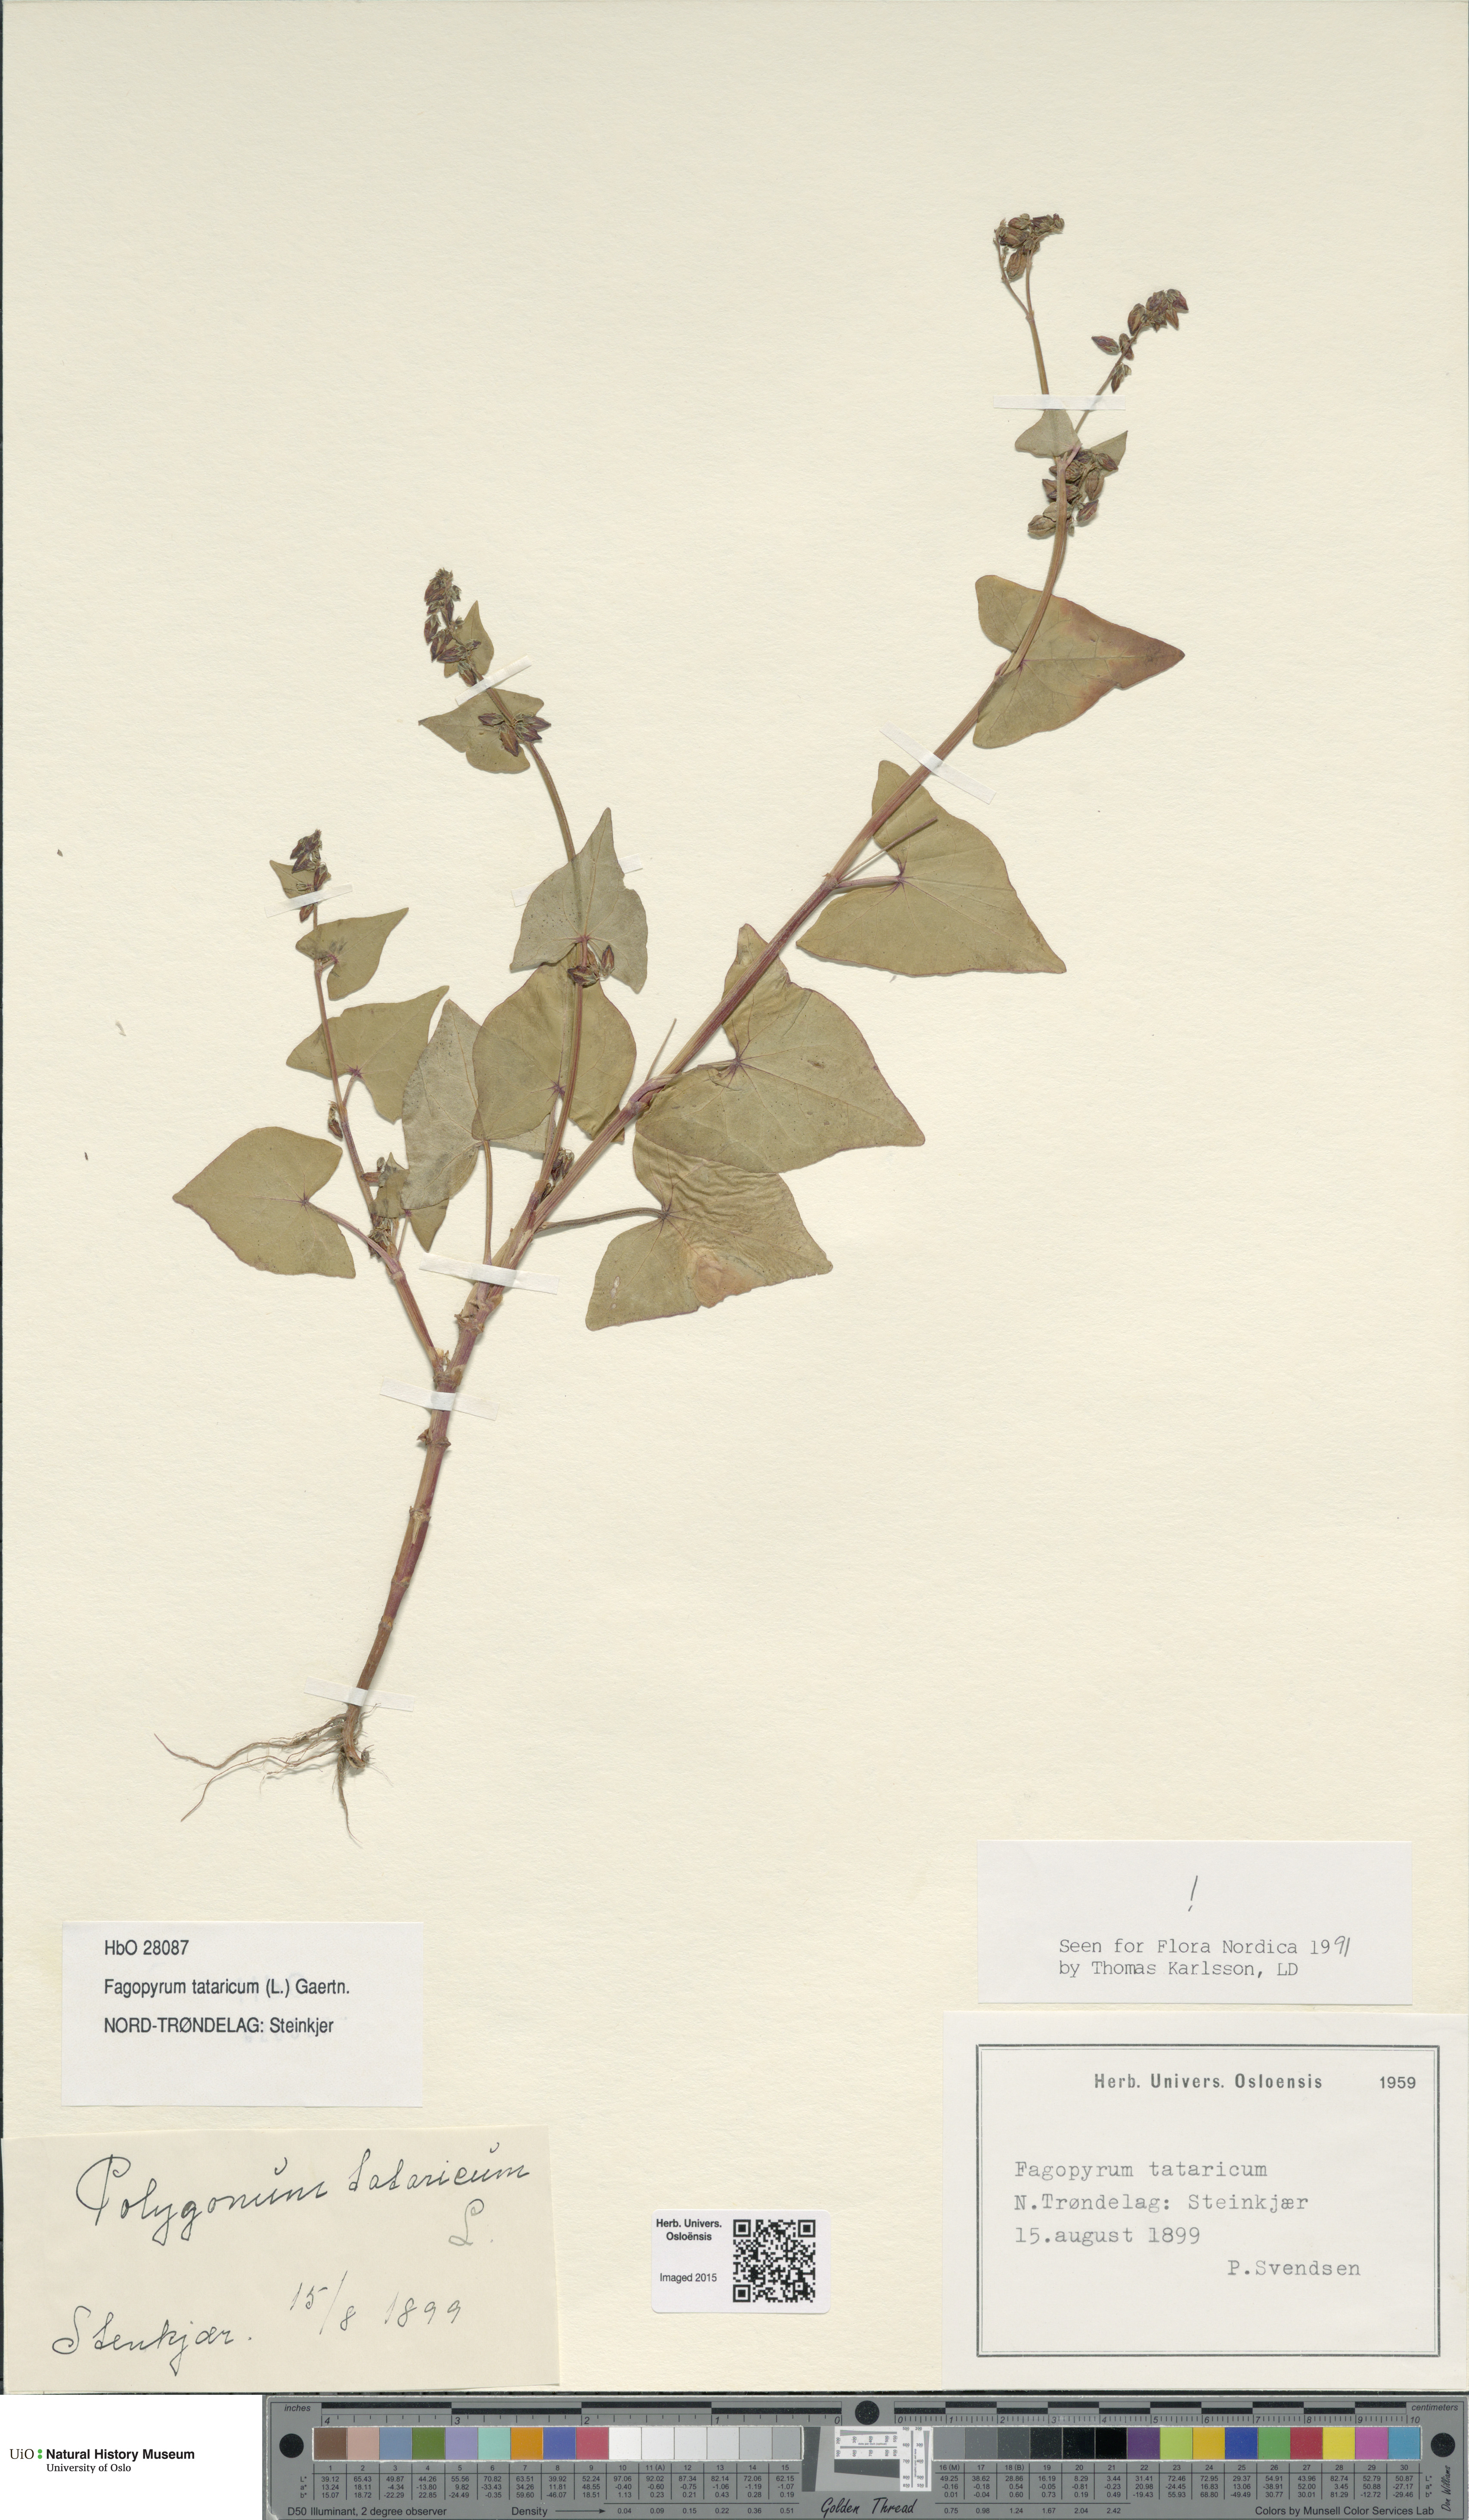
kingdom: Plantae
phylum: Tracheophyta
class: Magnoliopsida
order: Caryophyllales
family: Polygonaceae
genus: Fagopyrum
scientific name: Fagopyrum tataricum
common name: Green buckwheat
